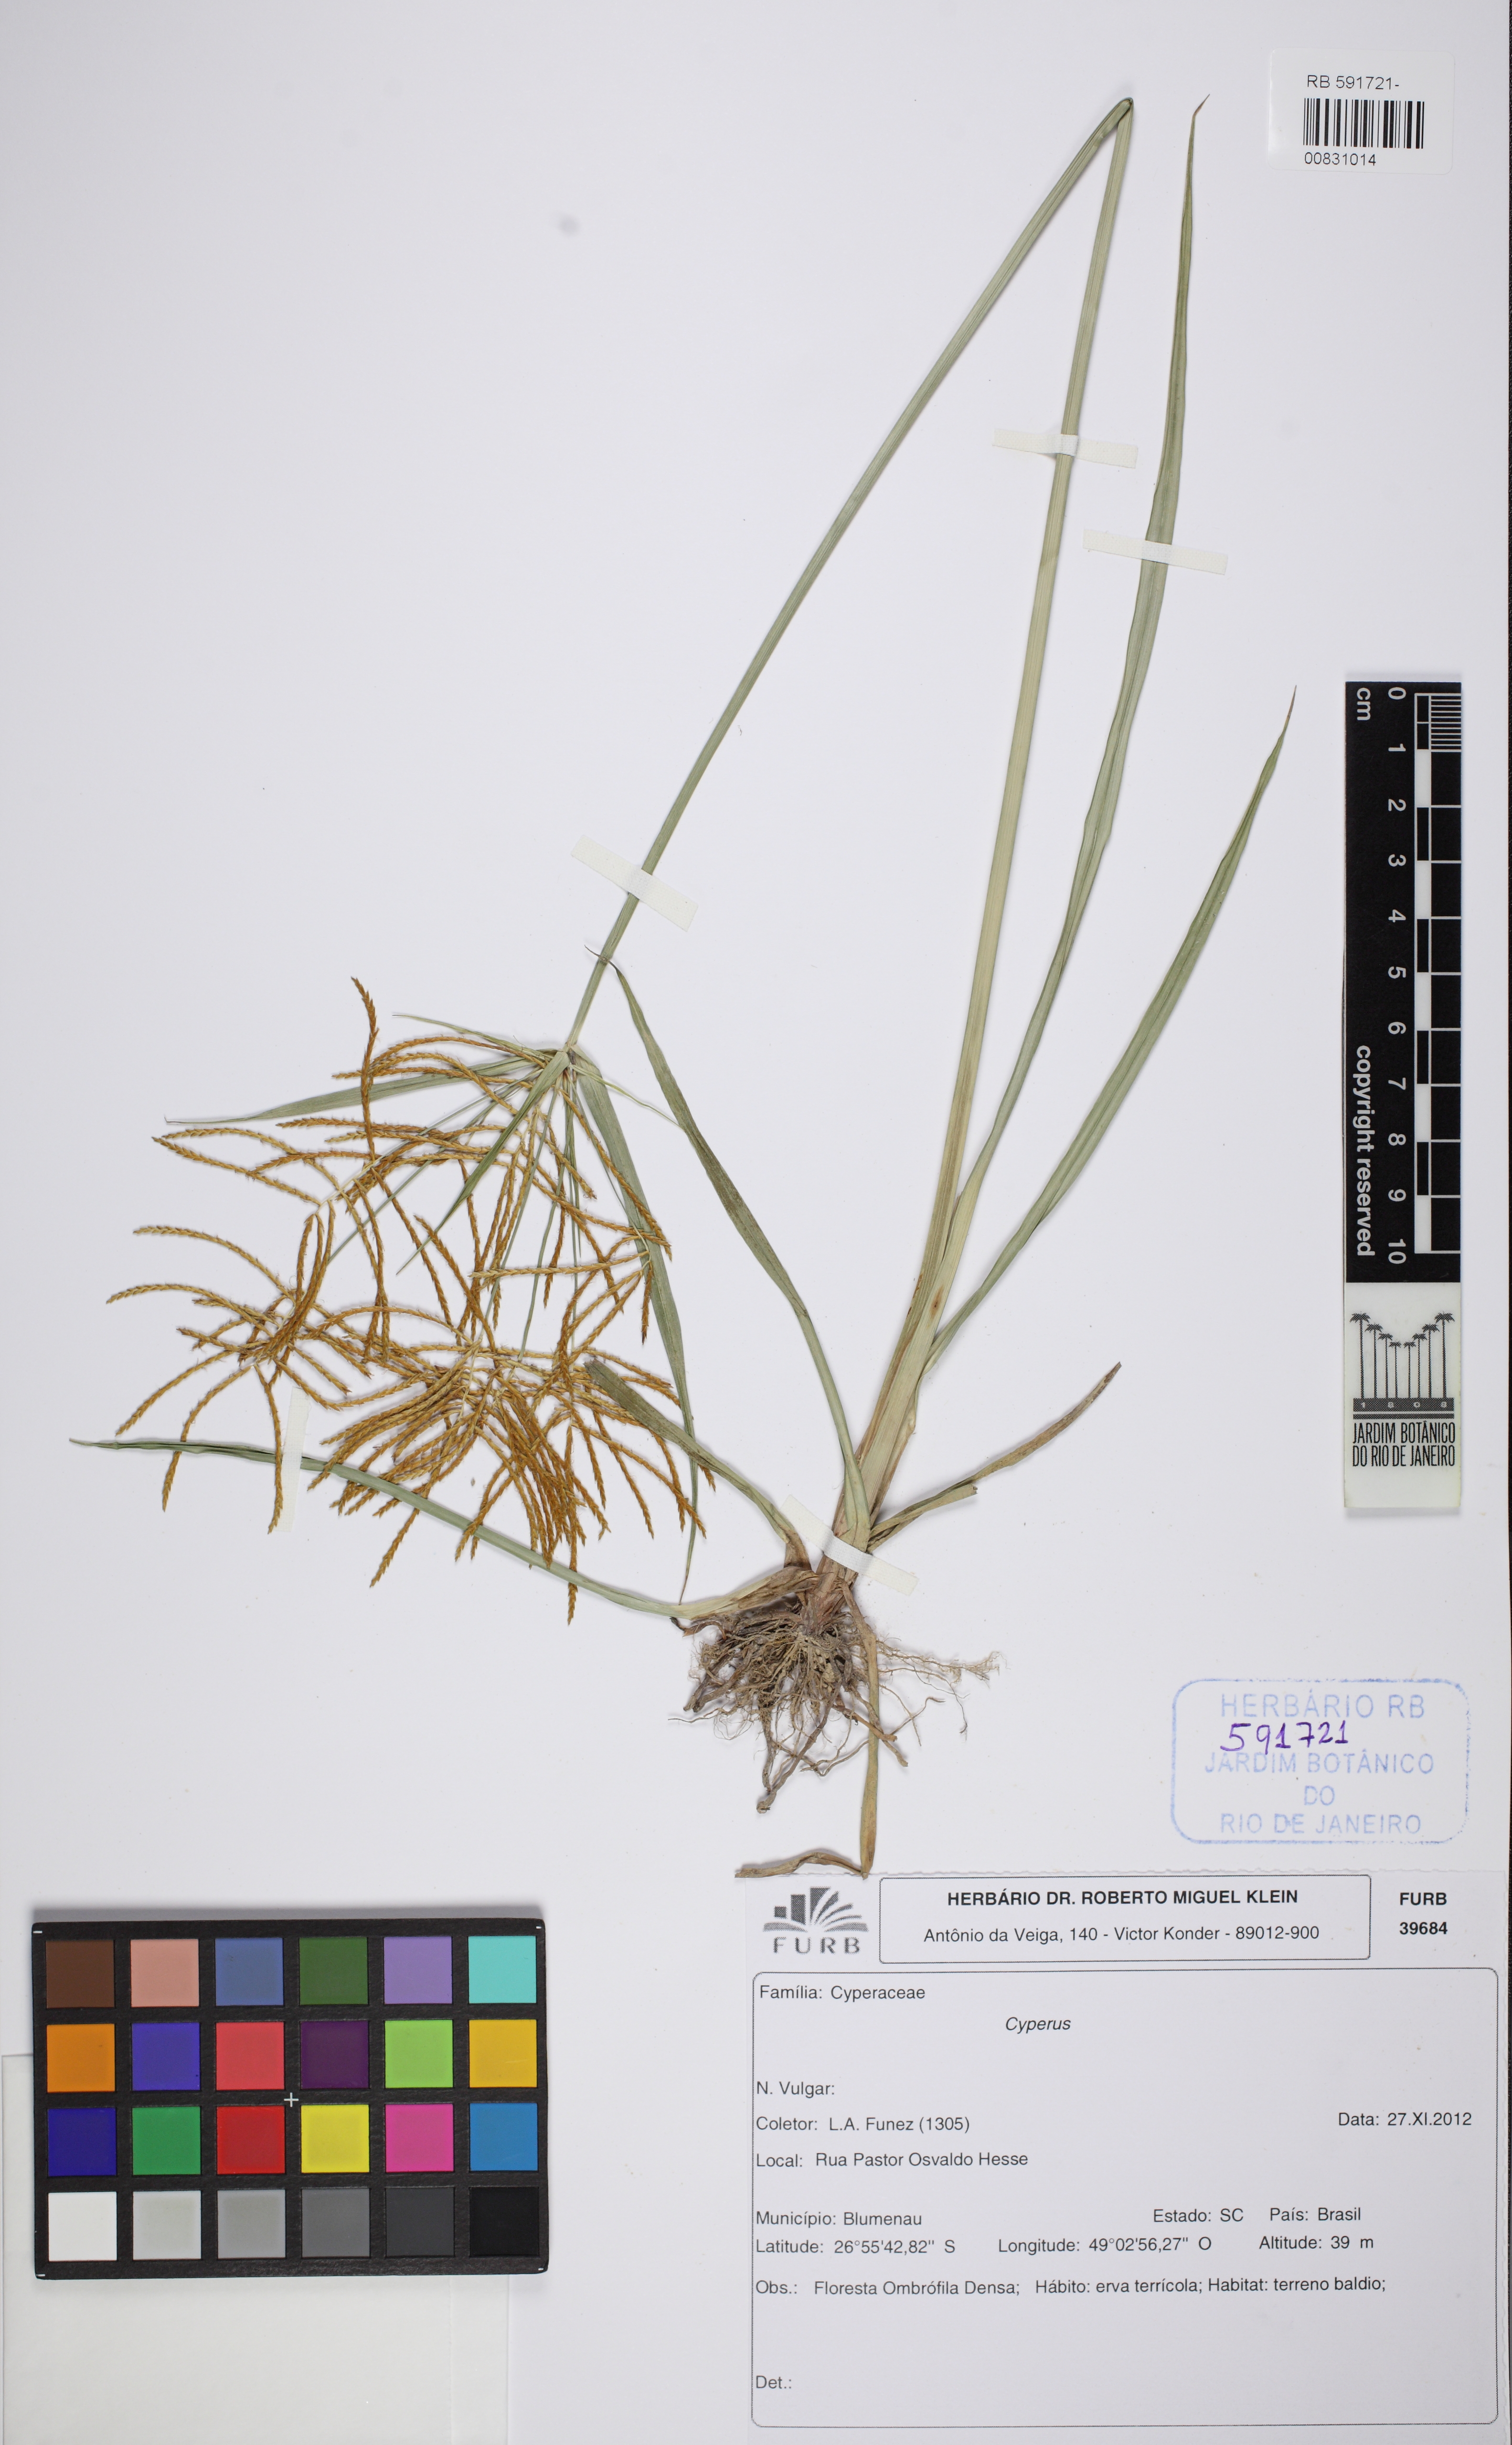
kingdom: Plantae
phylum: Tracheophyta
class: Liliopsida
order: Poales
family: Cyperaceae
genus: Cyperus
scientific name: Cyperus esculentus
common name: Yellow nutsedge
